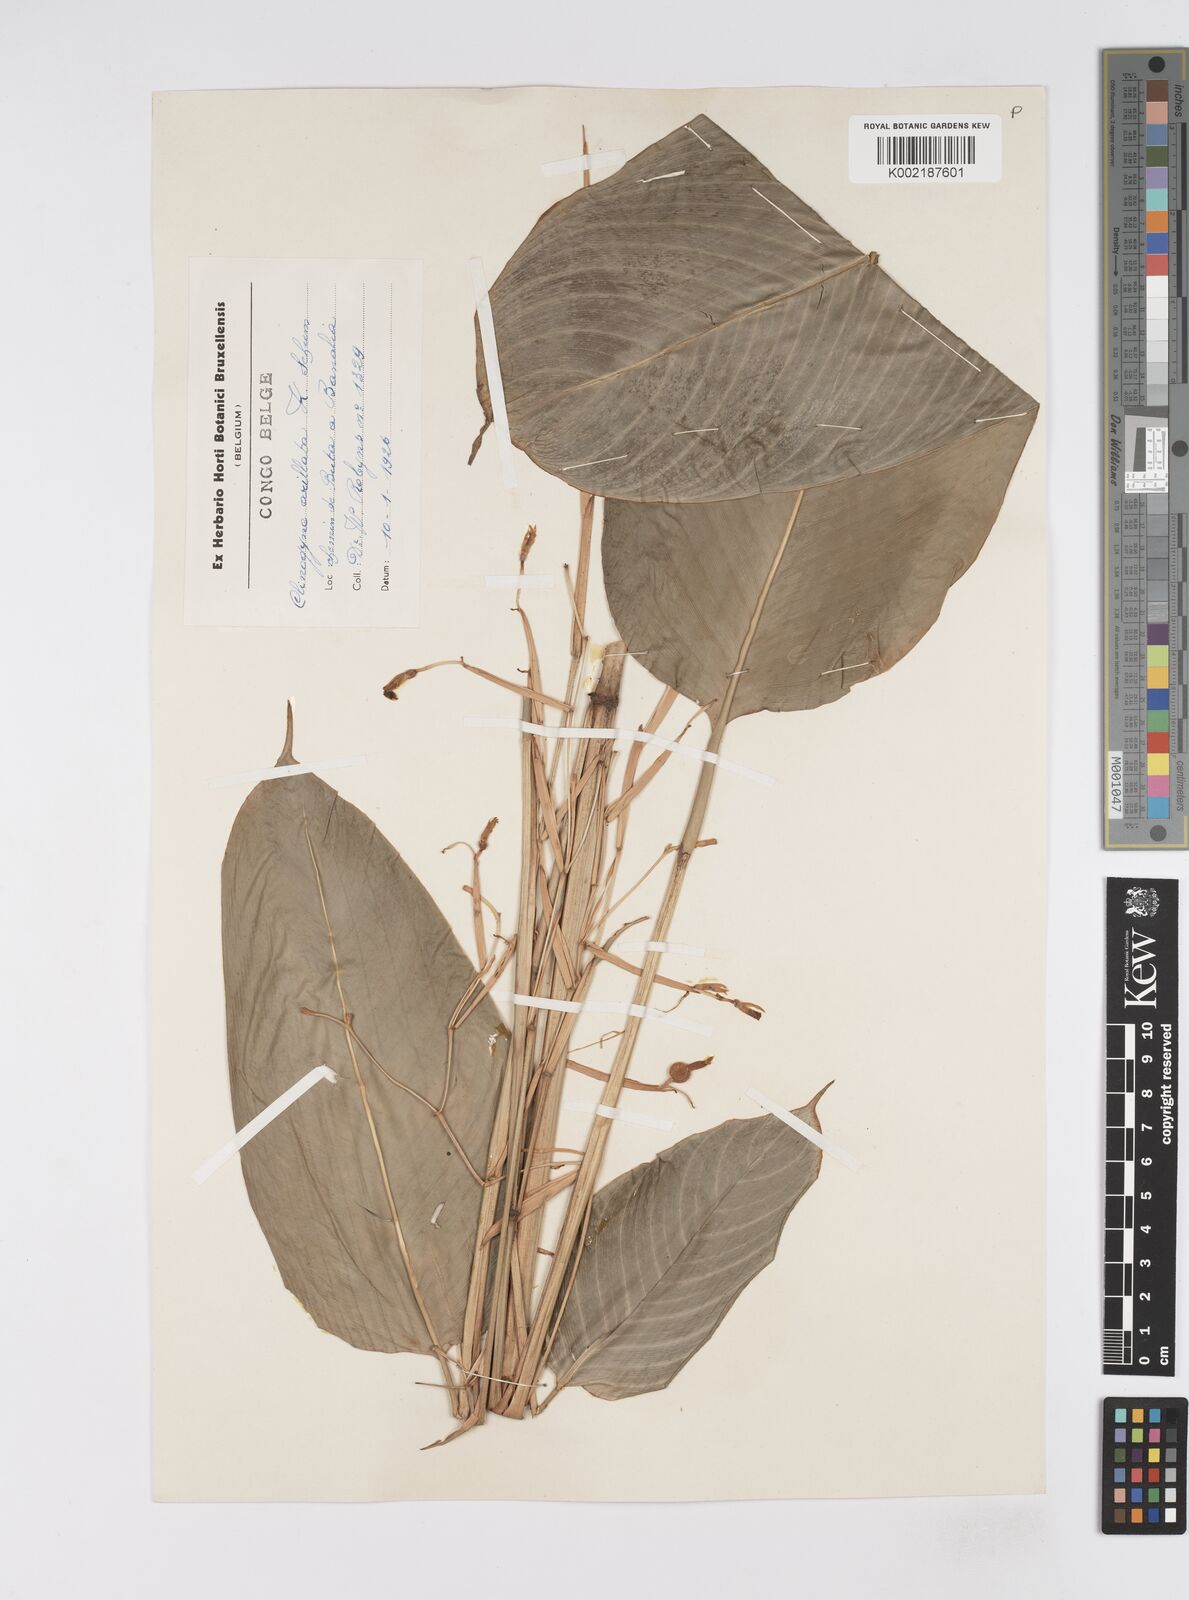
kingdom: Plantae
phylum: Tracheophyta
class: Liliopsida
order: Zingiberales
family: Marantaceae
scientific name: Marantaceae
